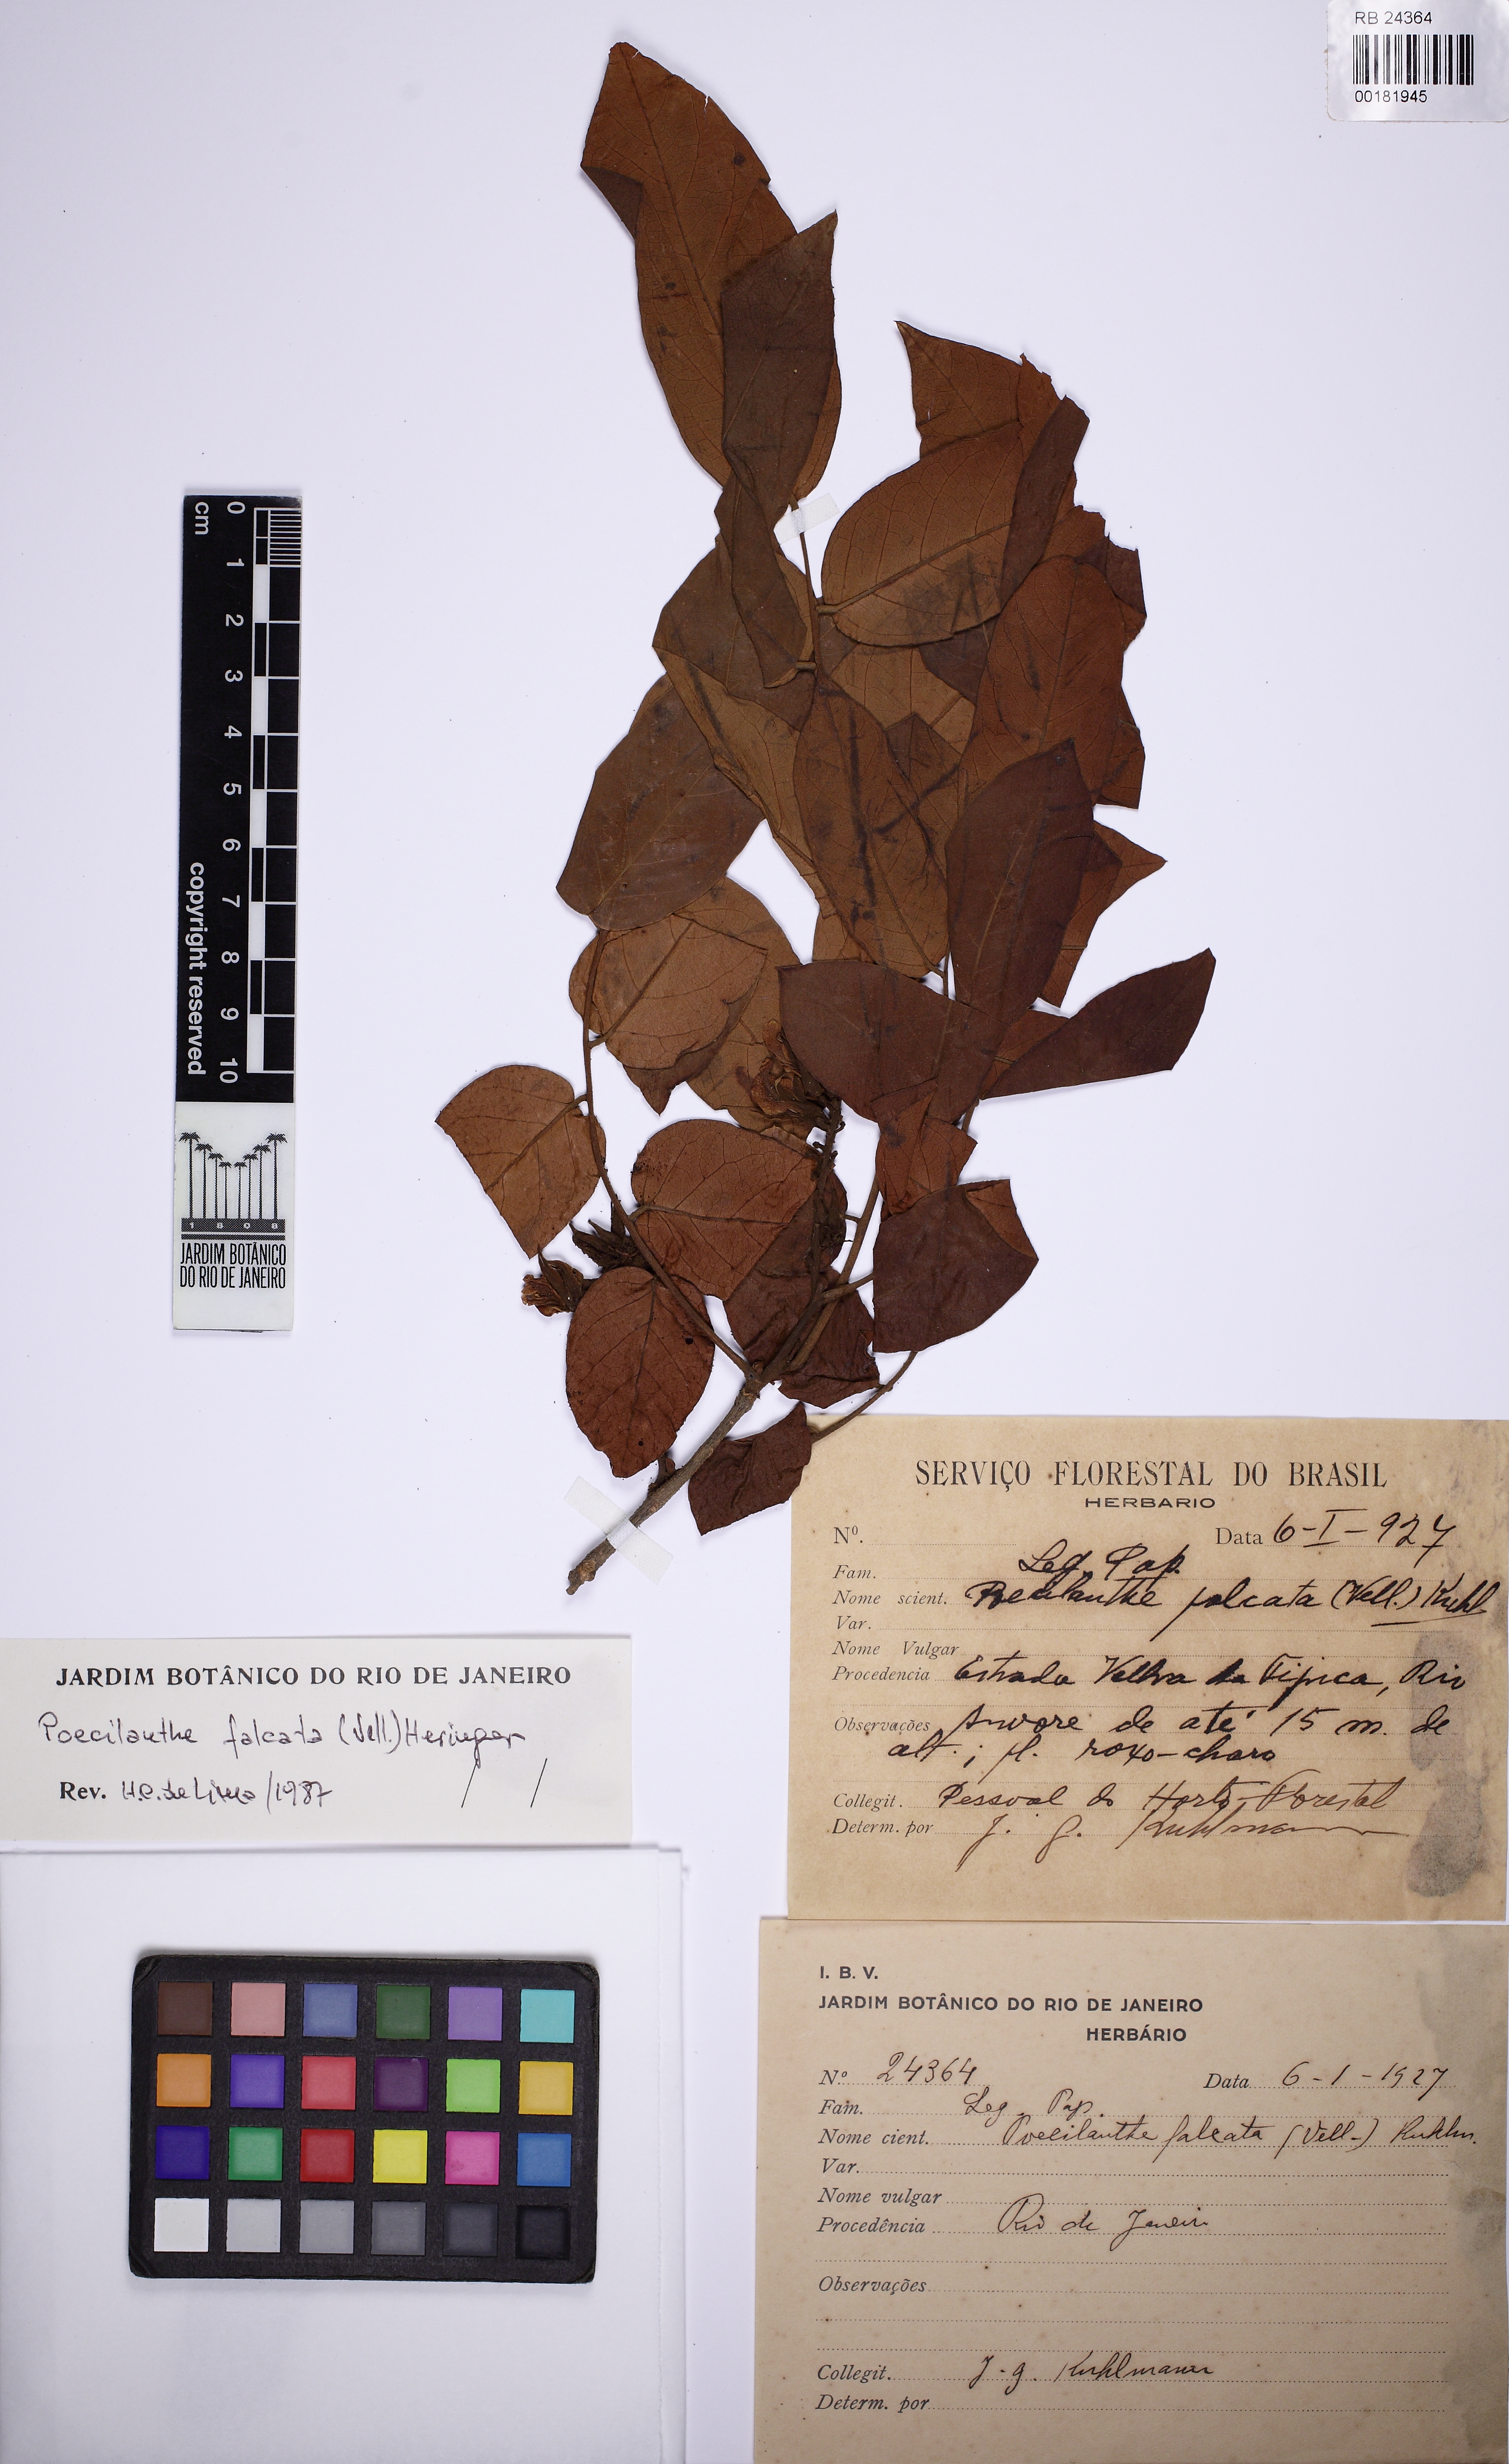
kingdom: Plantae
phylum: Tracheophyta
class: Magnoliopsida
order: Fabales
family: Fabaceae
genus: Poecilanthe
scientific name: Poecilanthe falcata
